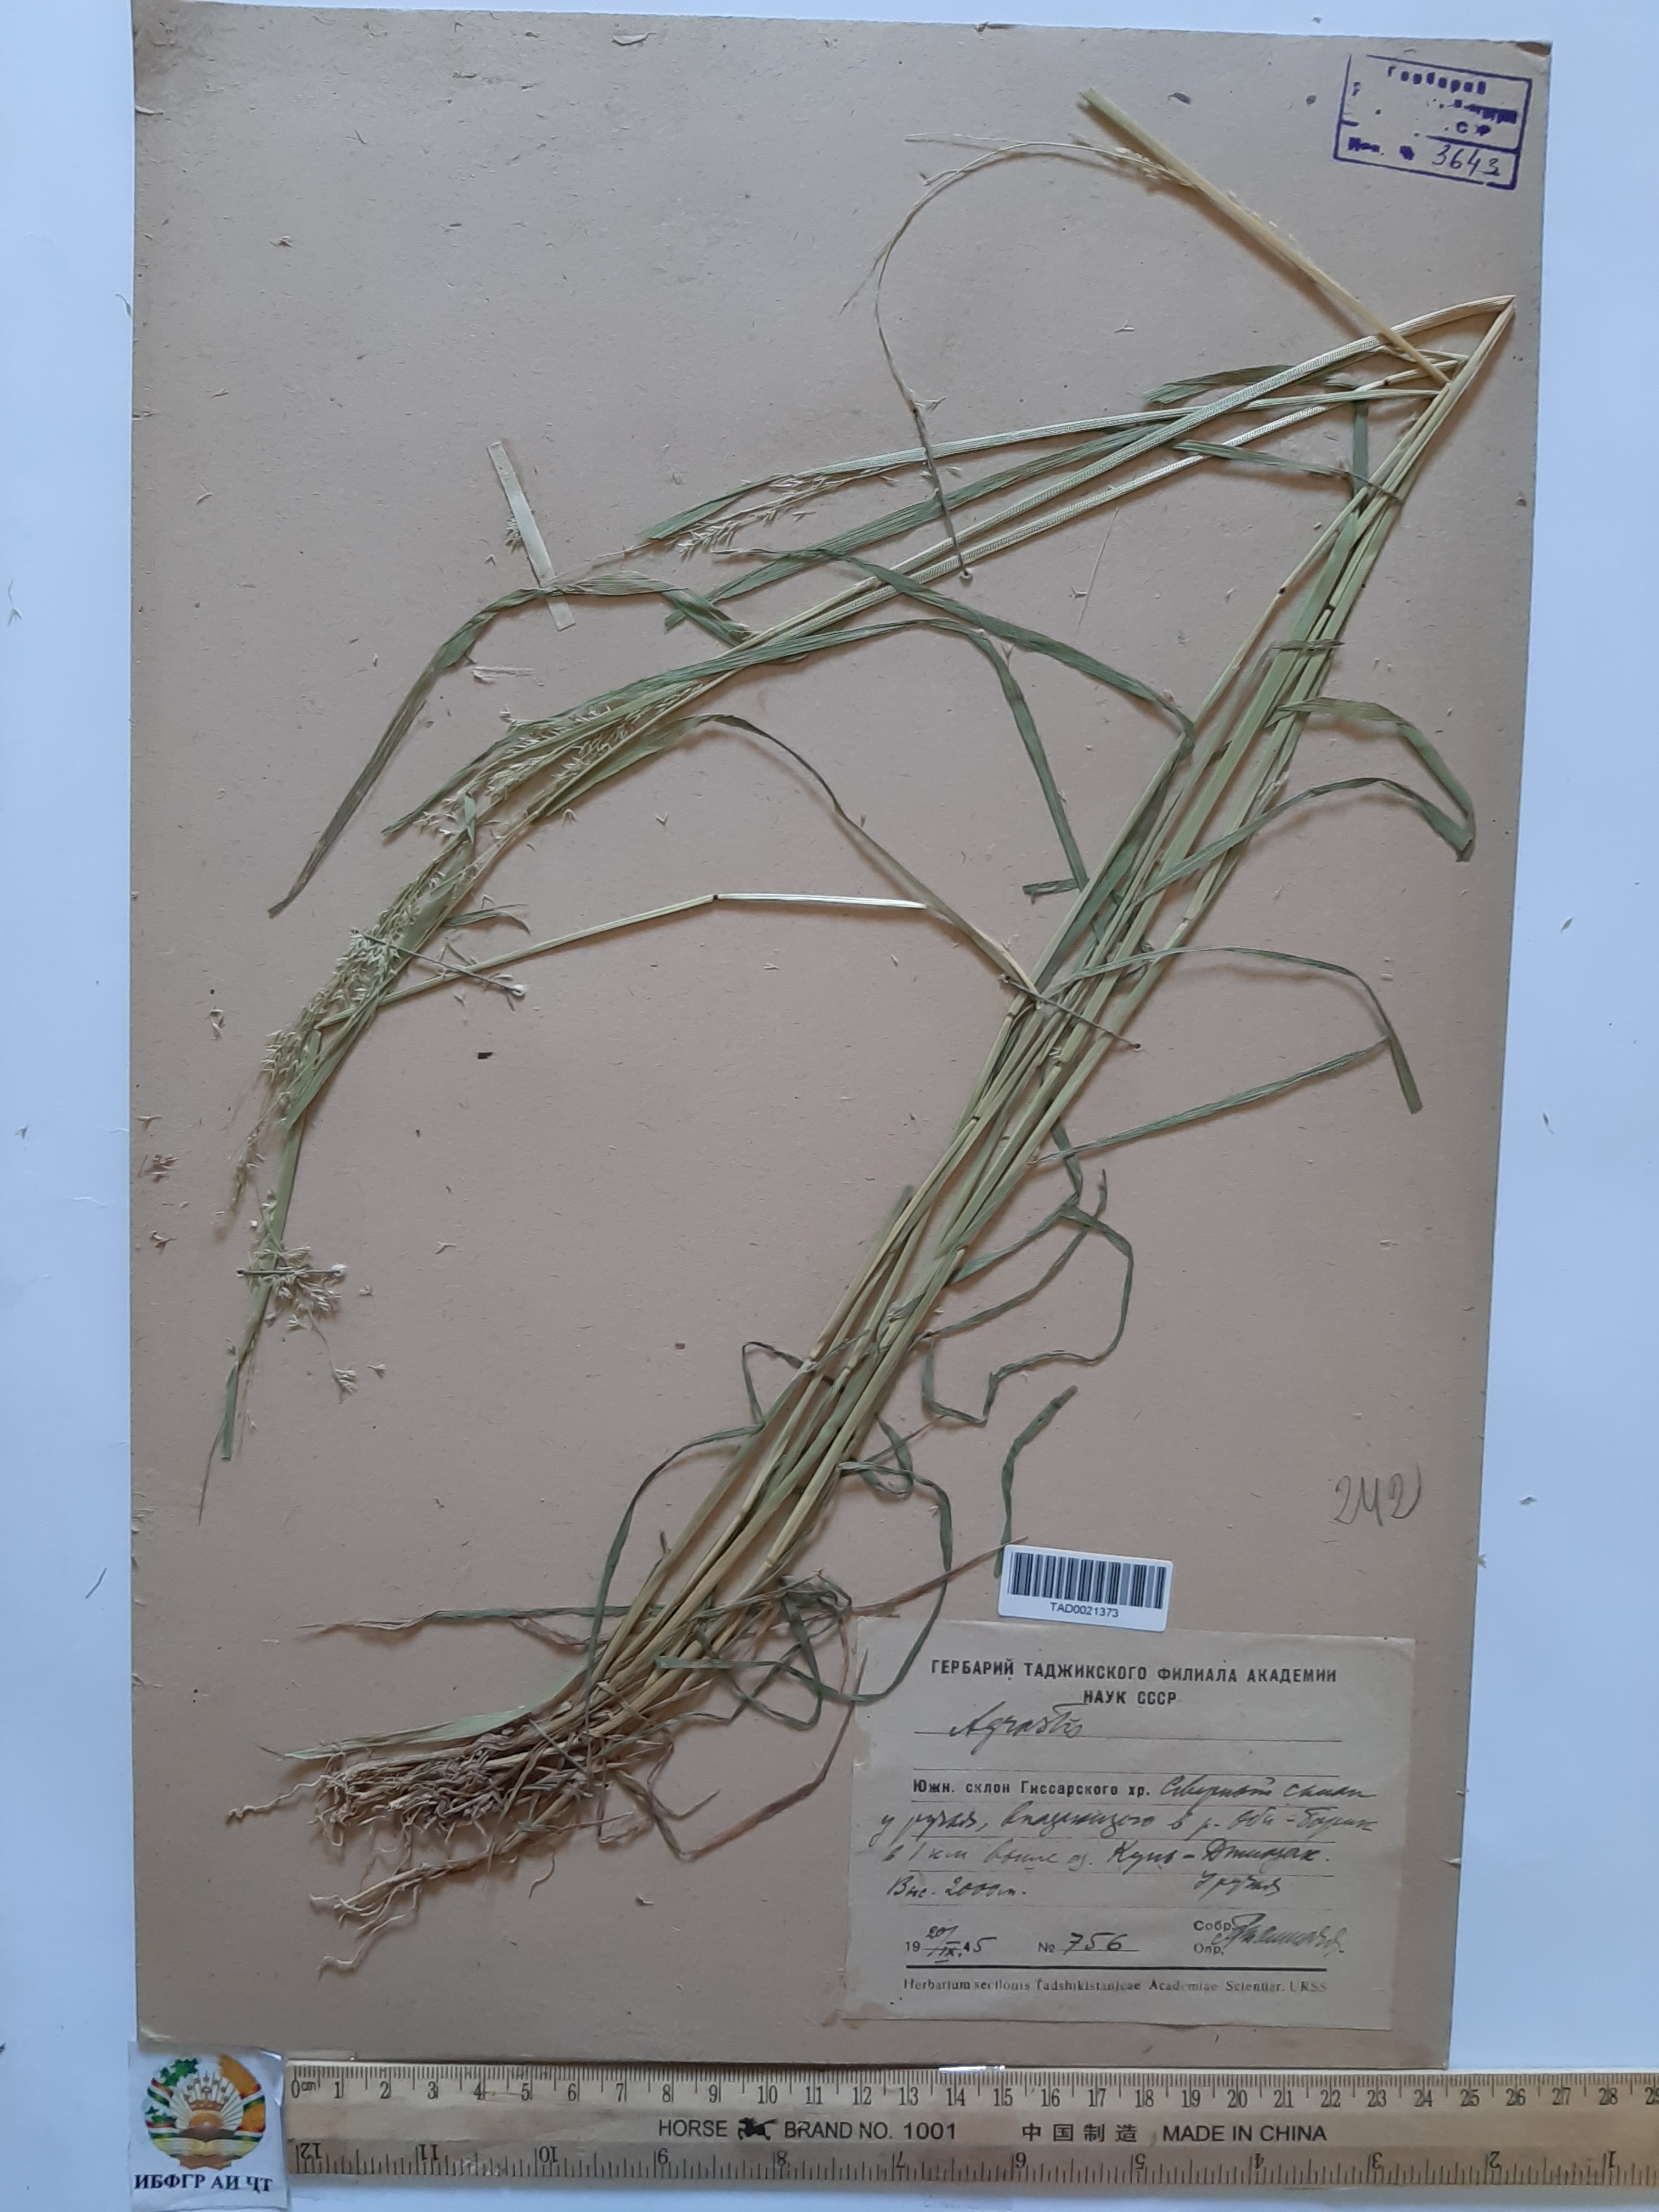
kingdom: Plantae
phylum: Tracheophyta
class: Liliopsida
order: Poales
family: Poaceae
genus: Polypogon
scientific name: Polypogon hissaricus
